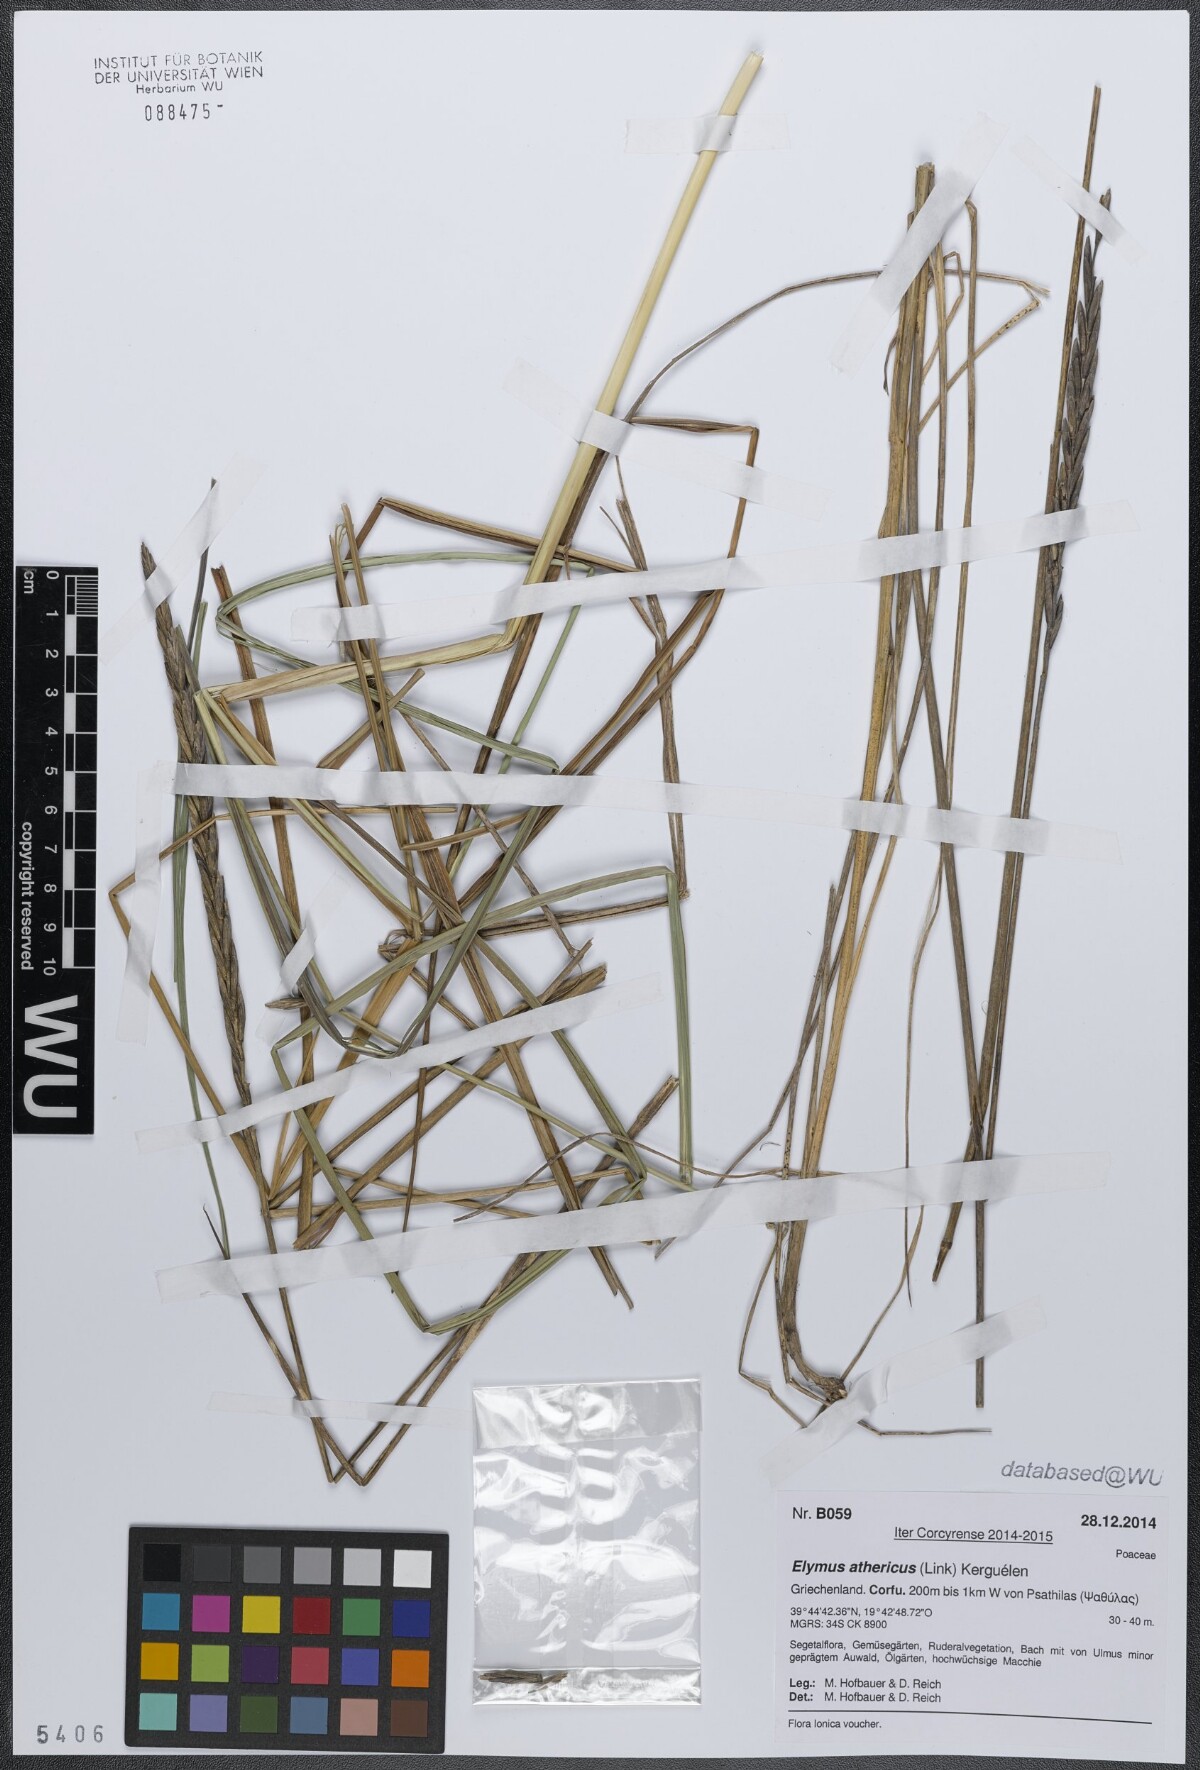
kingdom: Plantae
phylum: Tracheophyta
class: Liliopsida
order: Poales
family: Poaceae
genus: Elymus
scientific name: Elymus athericus
